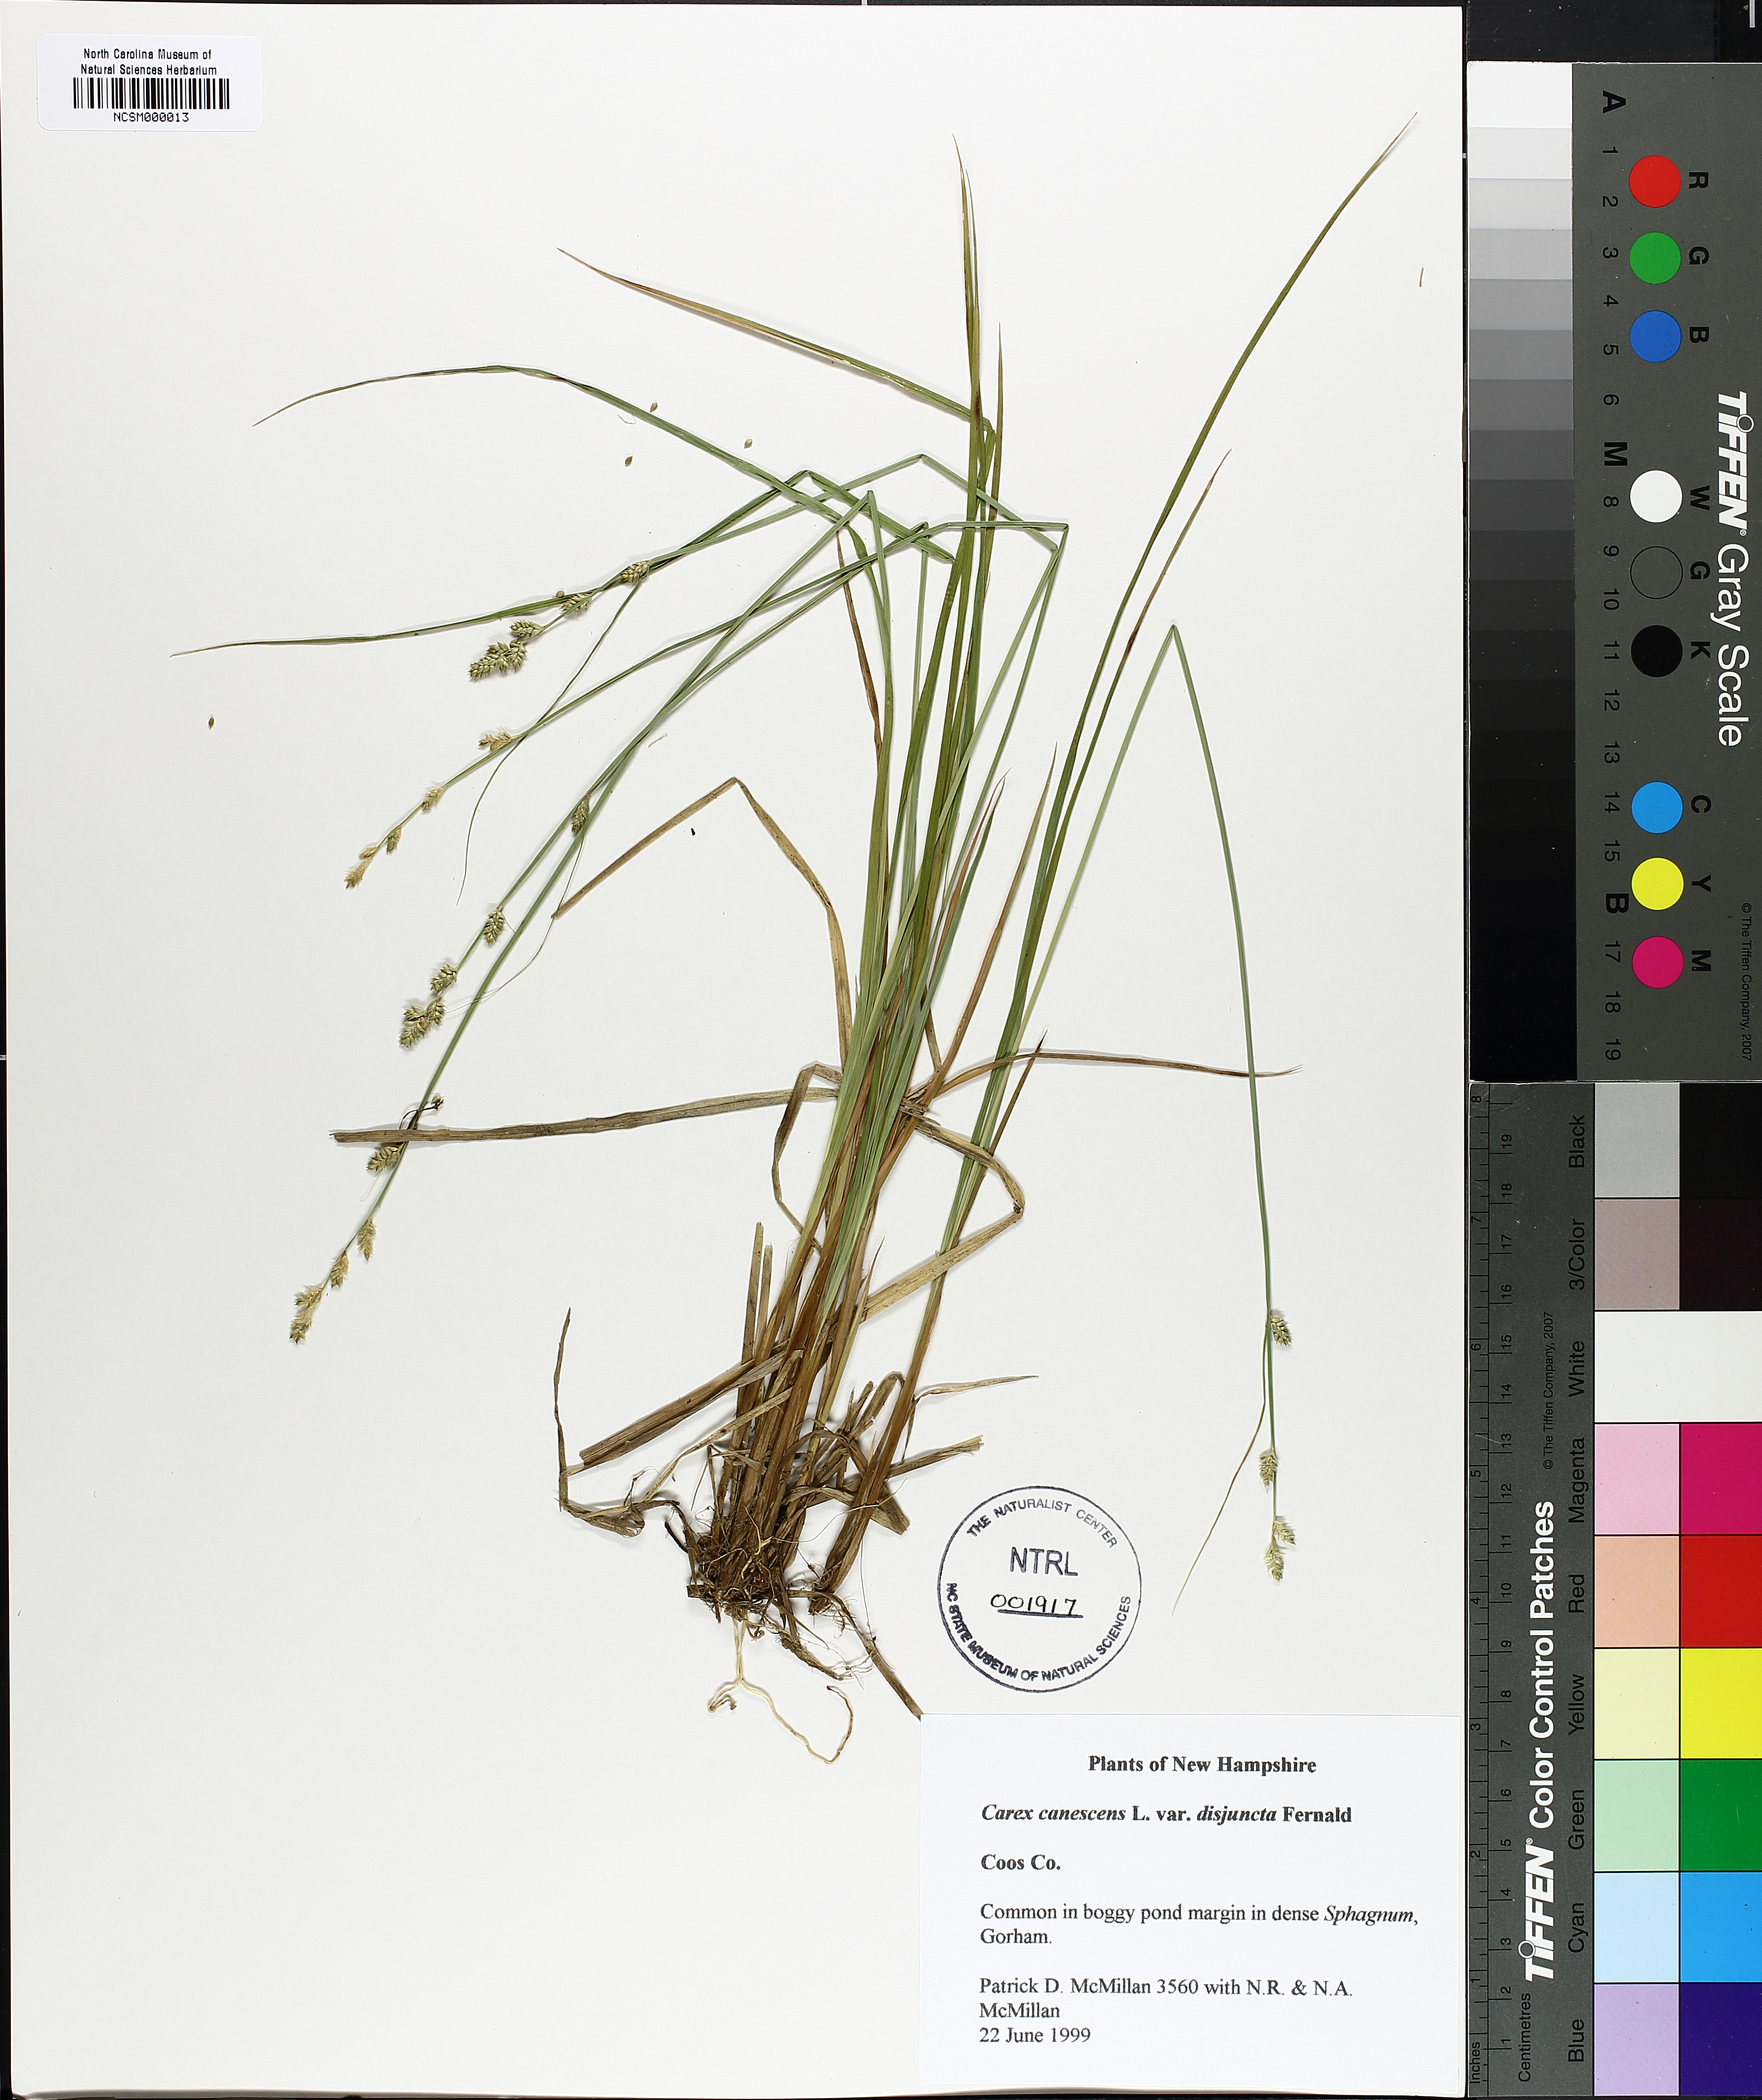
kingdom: Plantae
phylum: Tracheophyta
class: Liliopsida
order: Poales
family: Cyperaceae
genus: Carex
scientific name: Carex canescens
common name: White sedge
